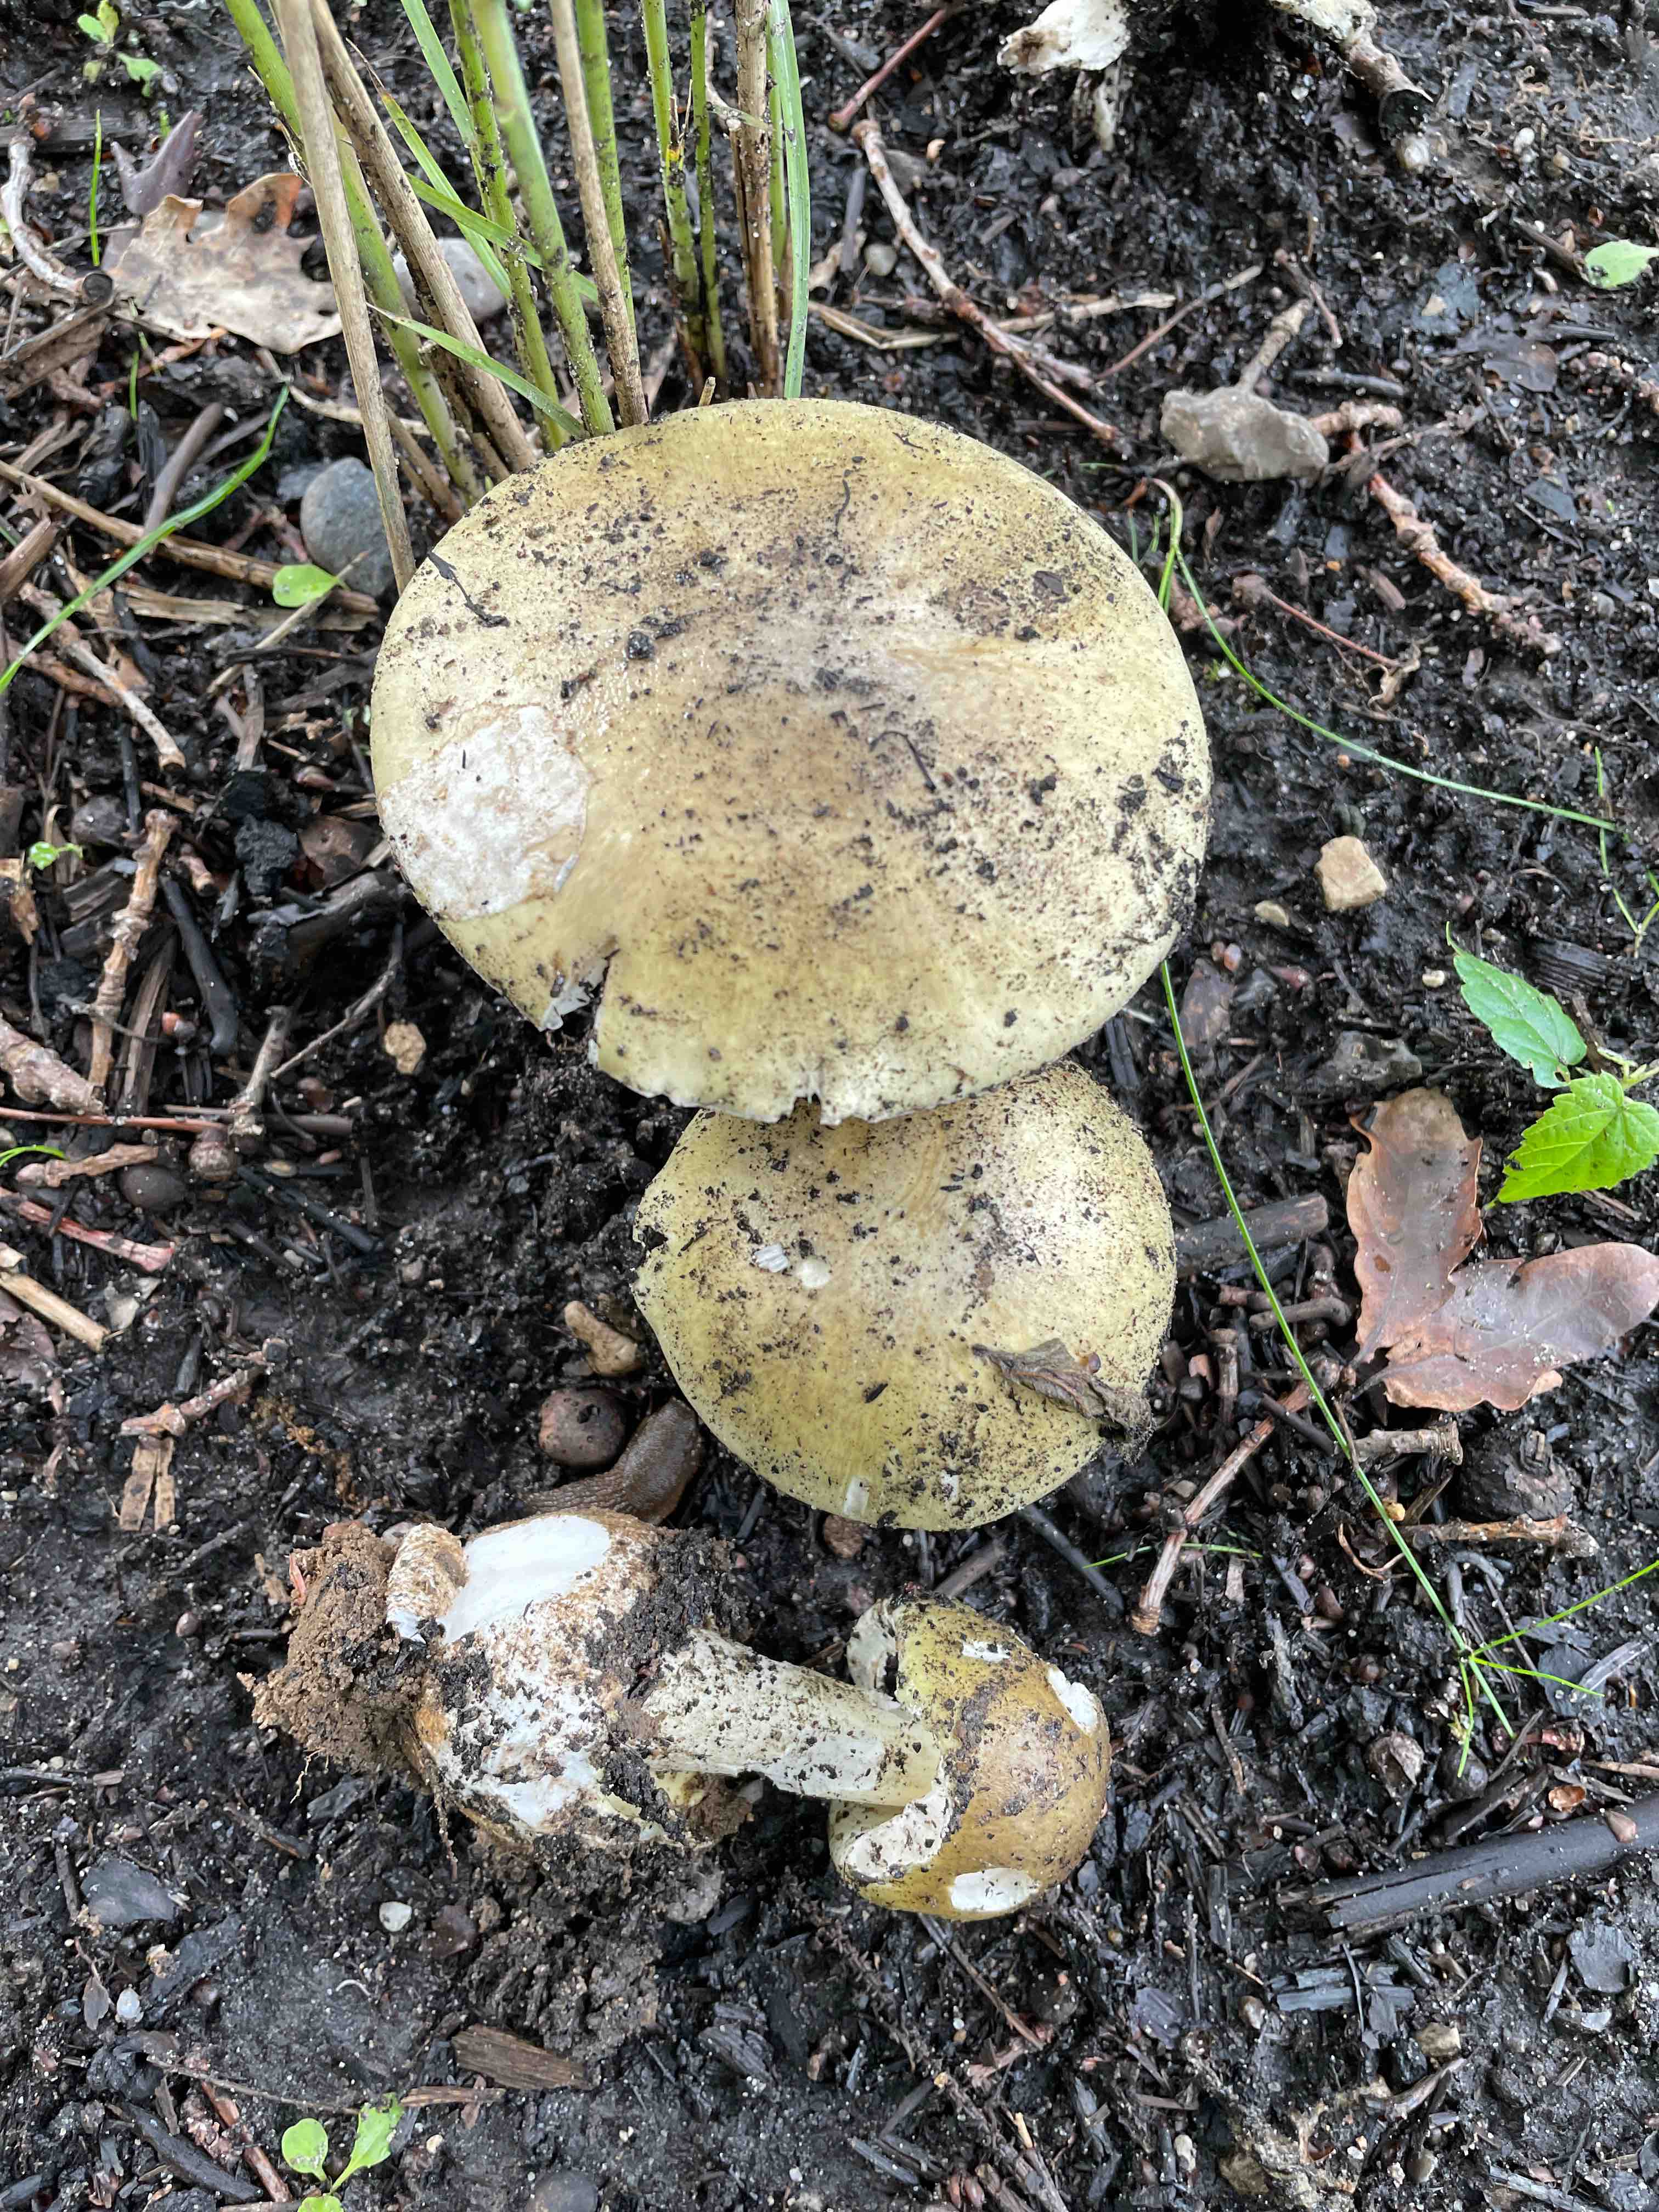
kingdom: Fungi
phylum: Basidiomycota
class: Agaricomycetes
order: Agaricales
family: Amanitaceae
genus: Amanita
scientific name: Amanita phalloides
